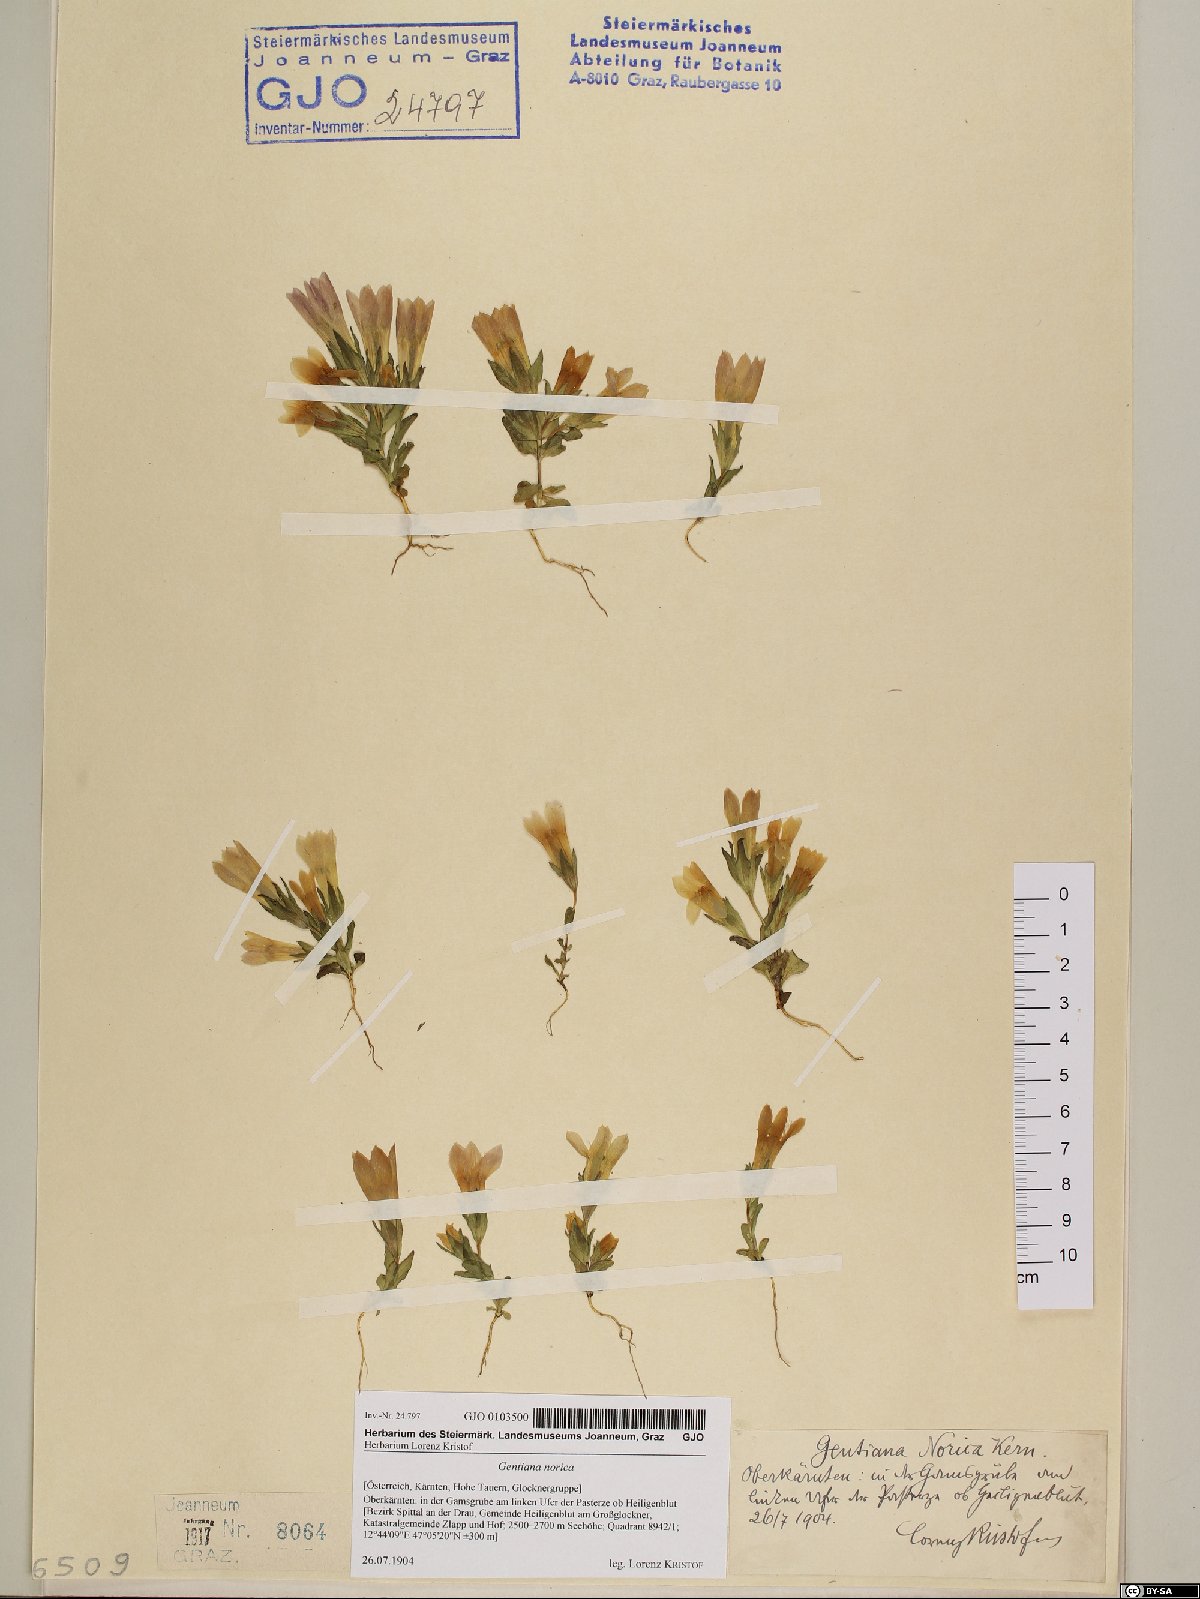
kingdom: Plantae
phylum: Tracheophyta
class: Magnoliopsida
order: Gentianales
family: Gentianaceae
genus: Gentianella
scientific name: Gentianella obtusifolia
